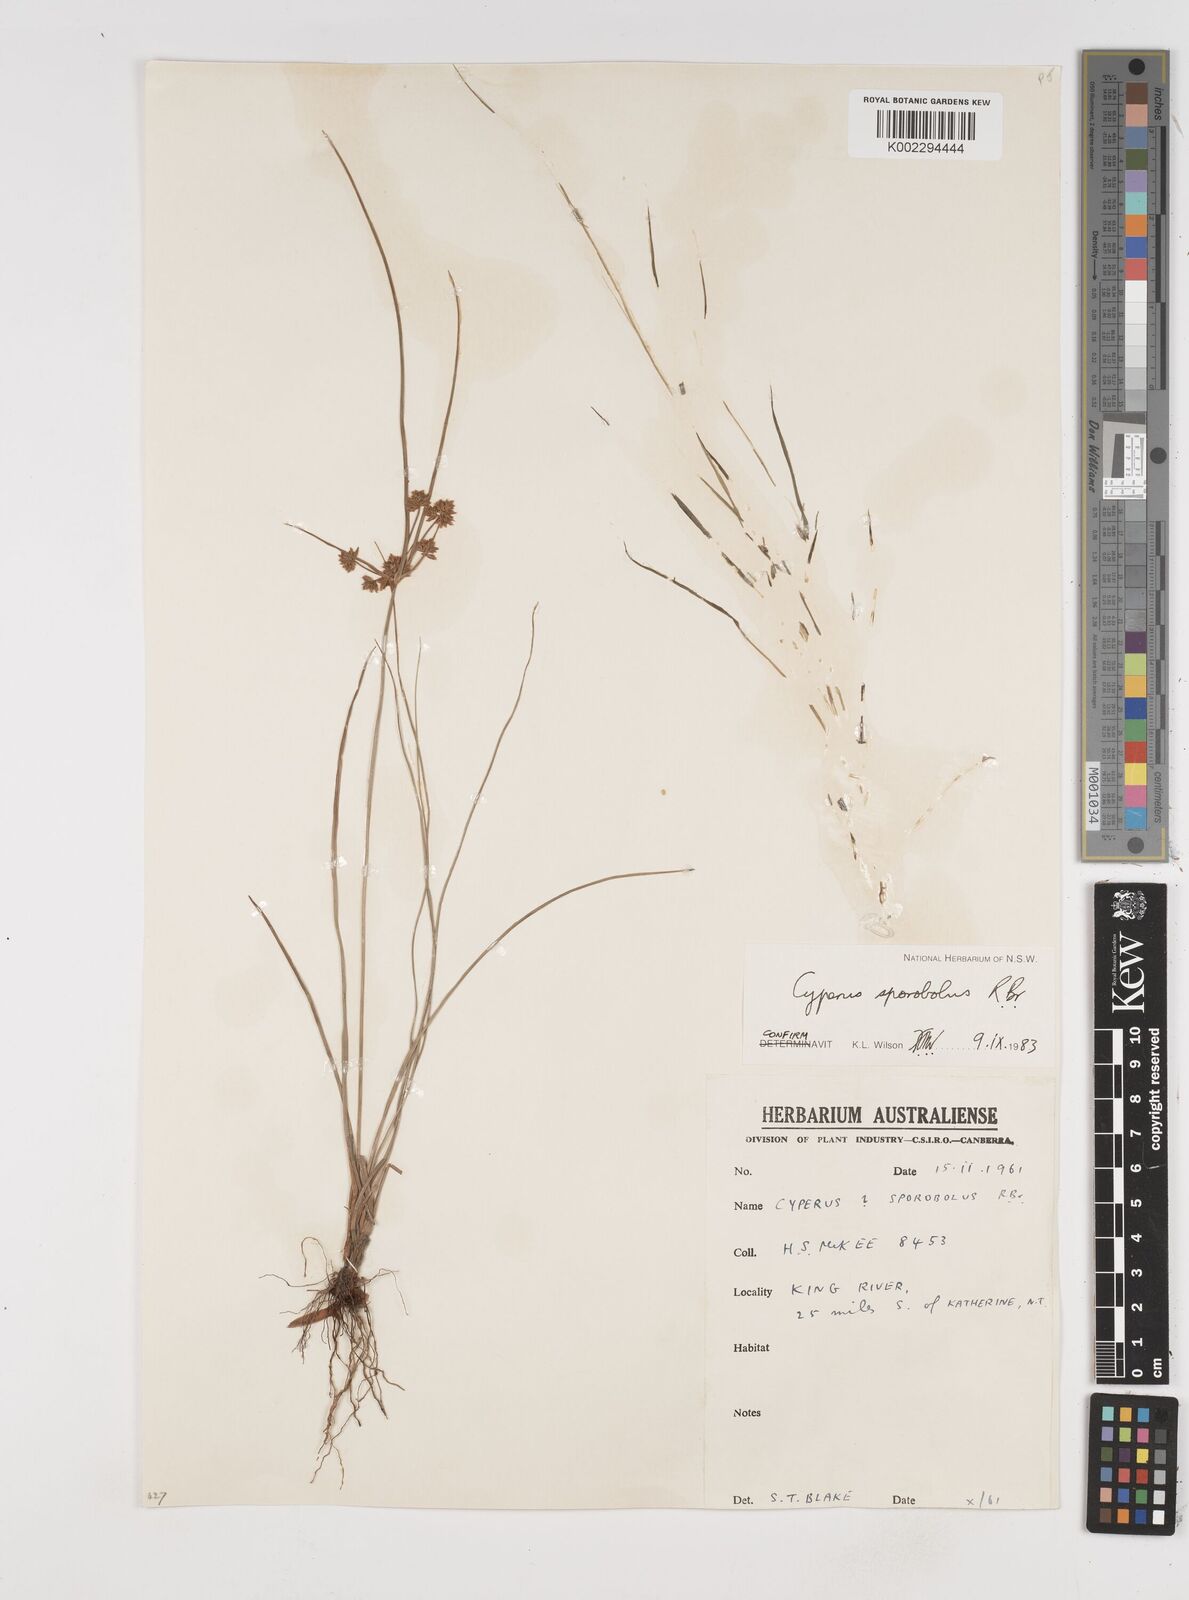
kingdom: Plantae
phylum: Tracheophyta
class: Liliopsida
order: Poales
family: Cyperaceae
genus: Cyperus
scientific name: Cyperus sporobolus
